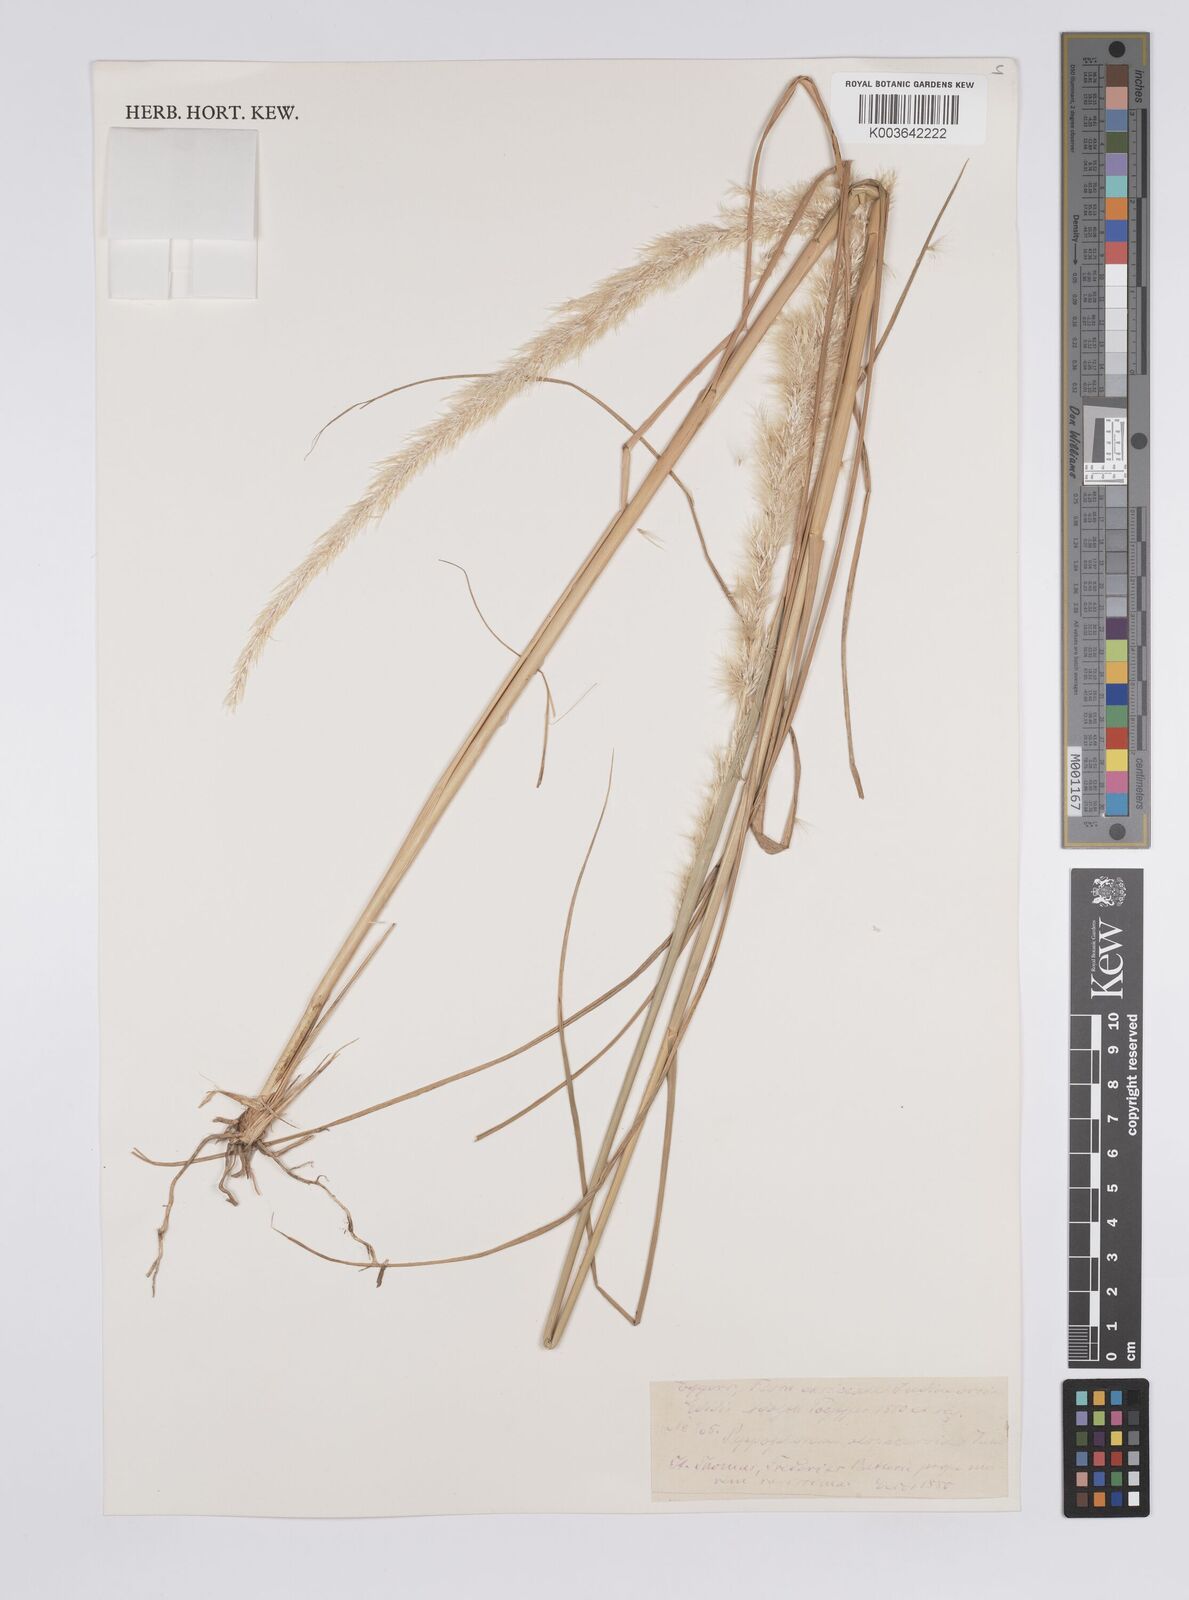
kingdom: Plantae
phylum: Tracheophyta
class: Liliopsida
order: Poales
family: Poaceae
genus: Pappophorum
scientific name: Pappophorum pappiferum
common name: Crabgrass
